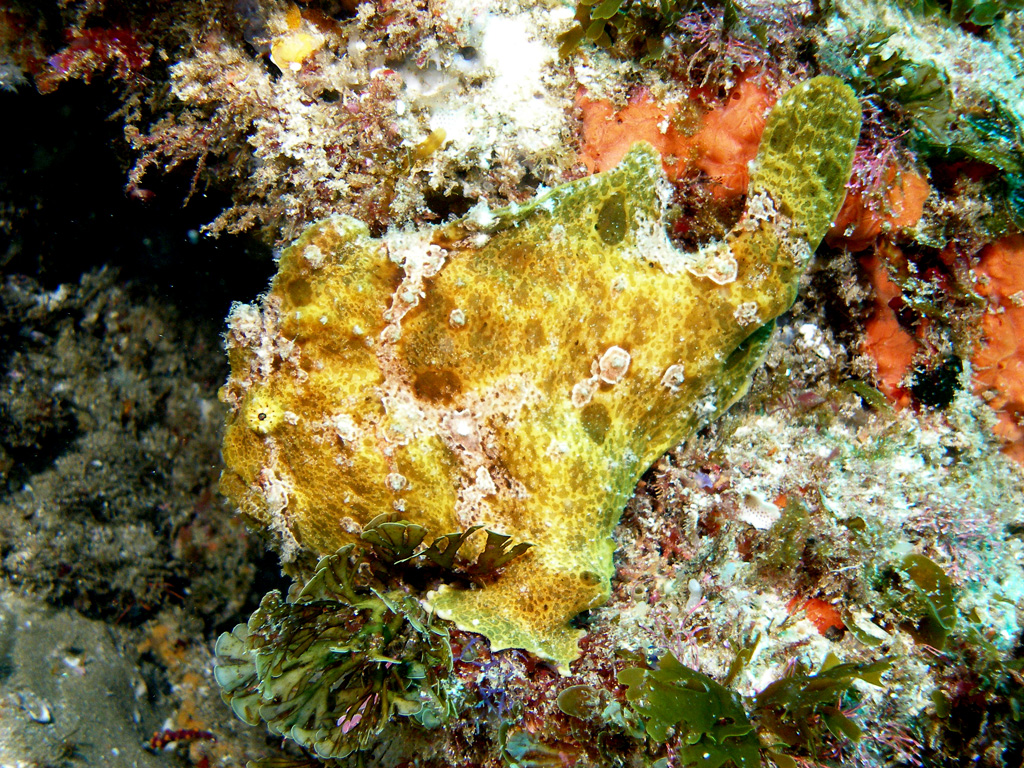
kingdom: Animalia
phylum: Chordata
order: Lophiiformes
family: Antennariidae
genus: Antennarius
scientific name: Antennarius
